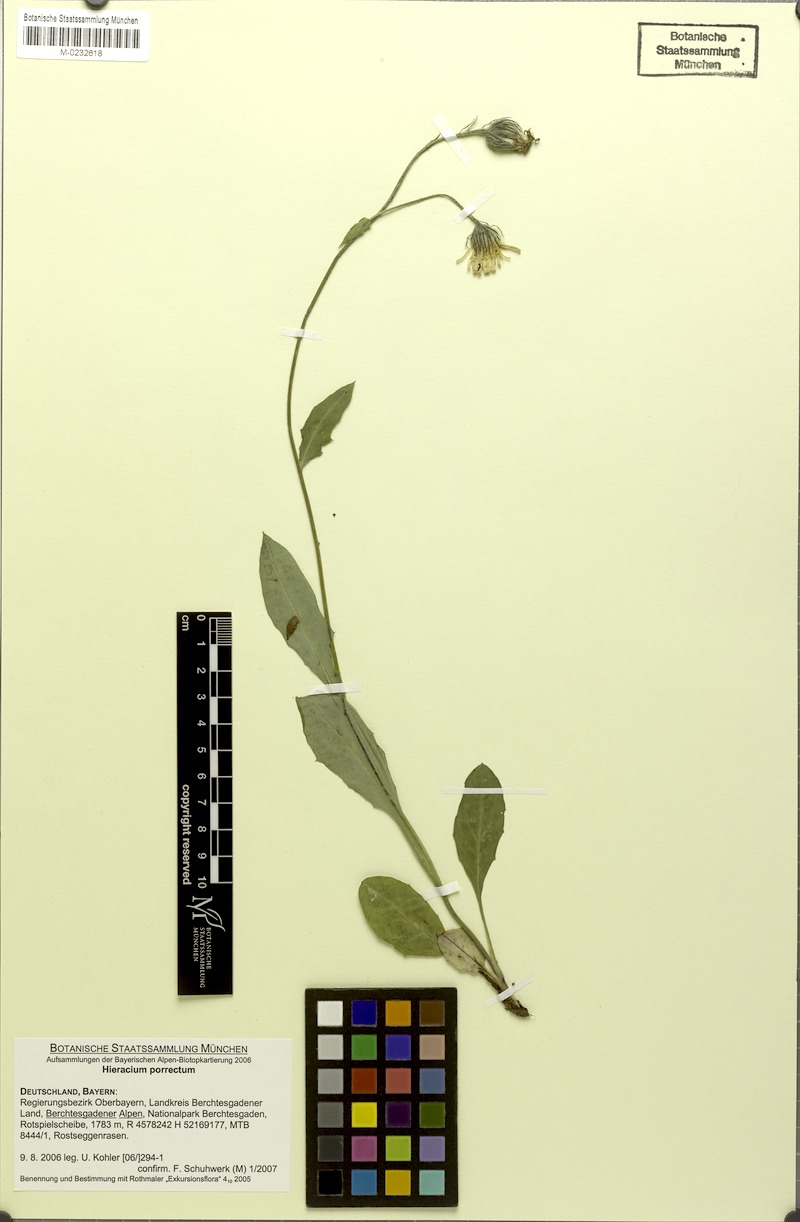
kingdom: Plantae
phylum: Tracheophyta
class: Magnoliopsida
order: Asterales
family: Asteraceae
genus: Hieracium
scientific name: Hieracium porrectum
